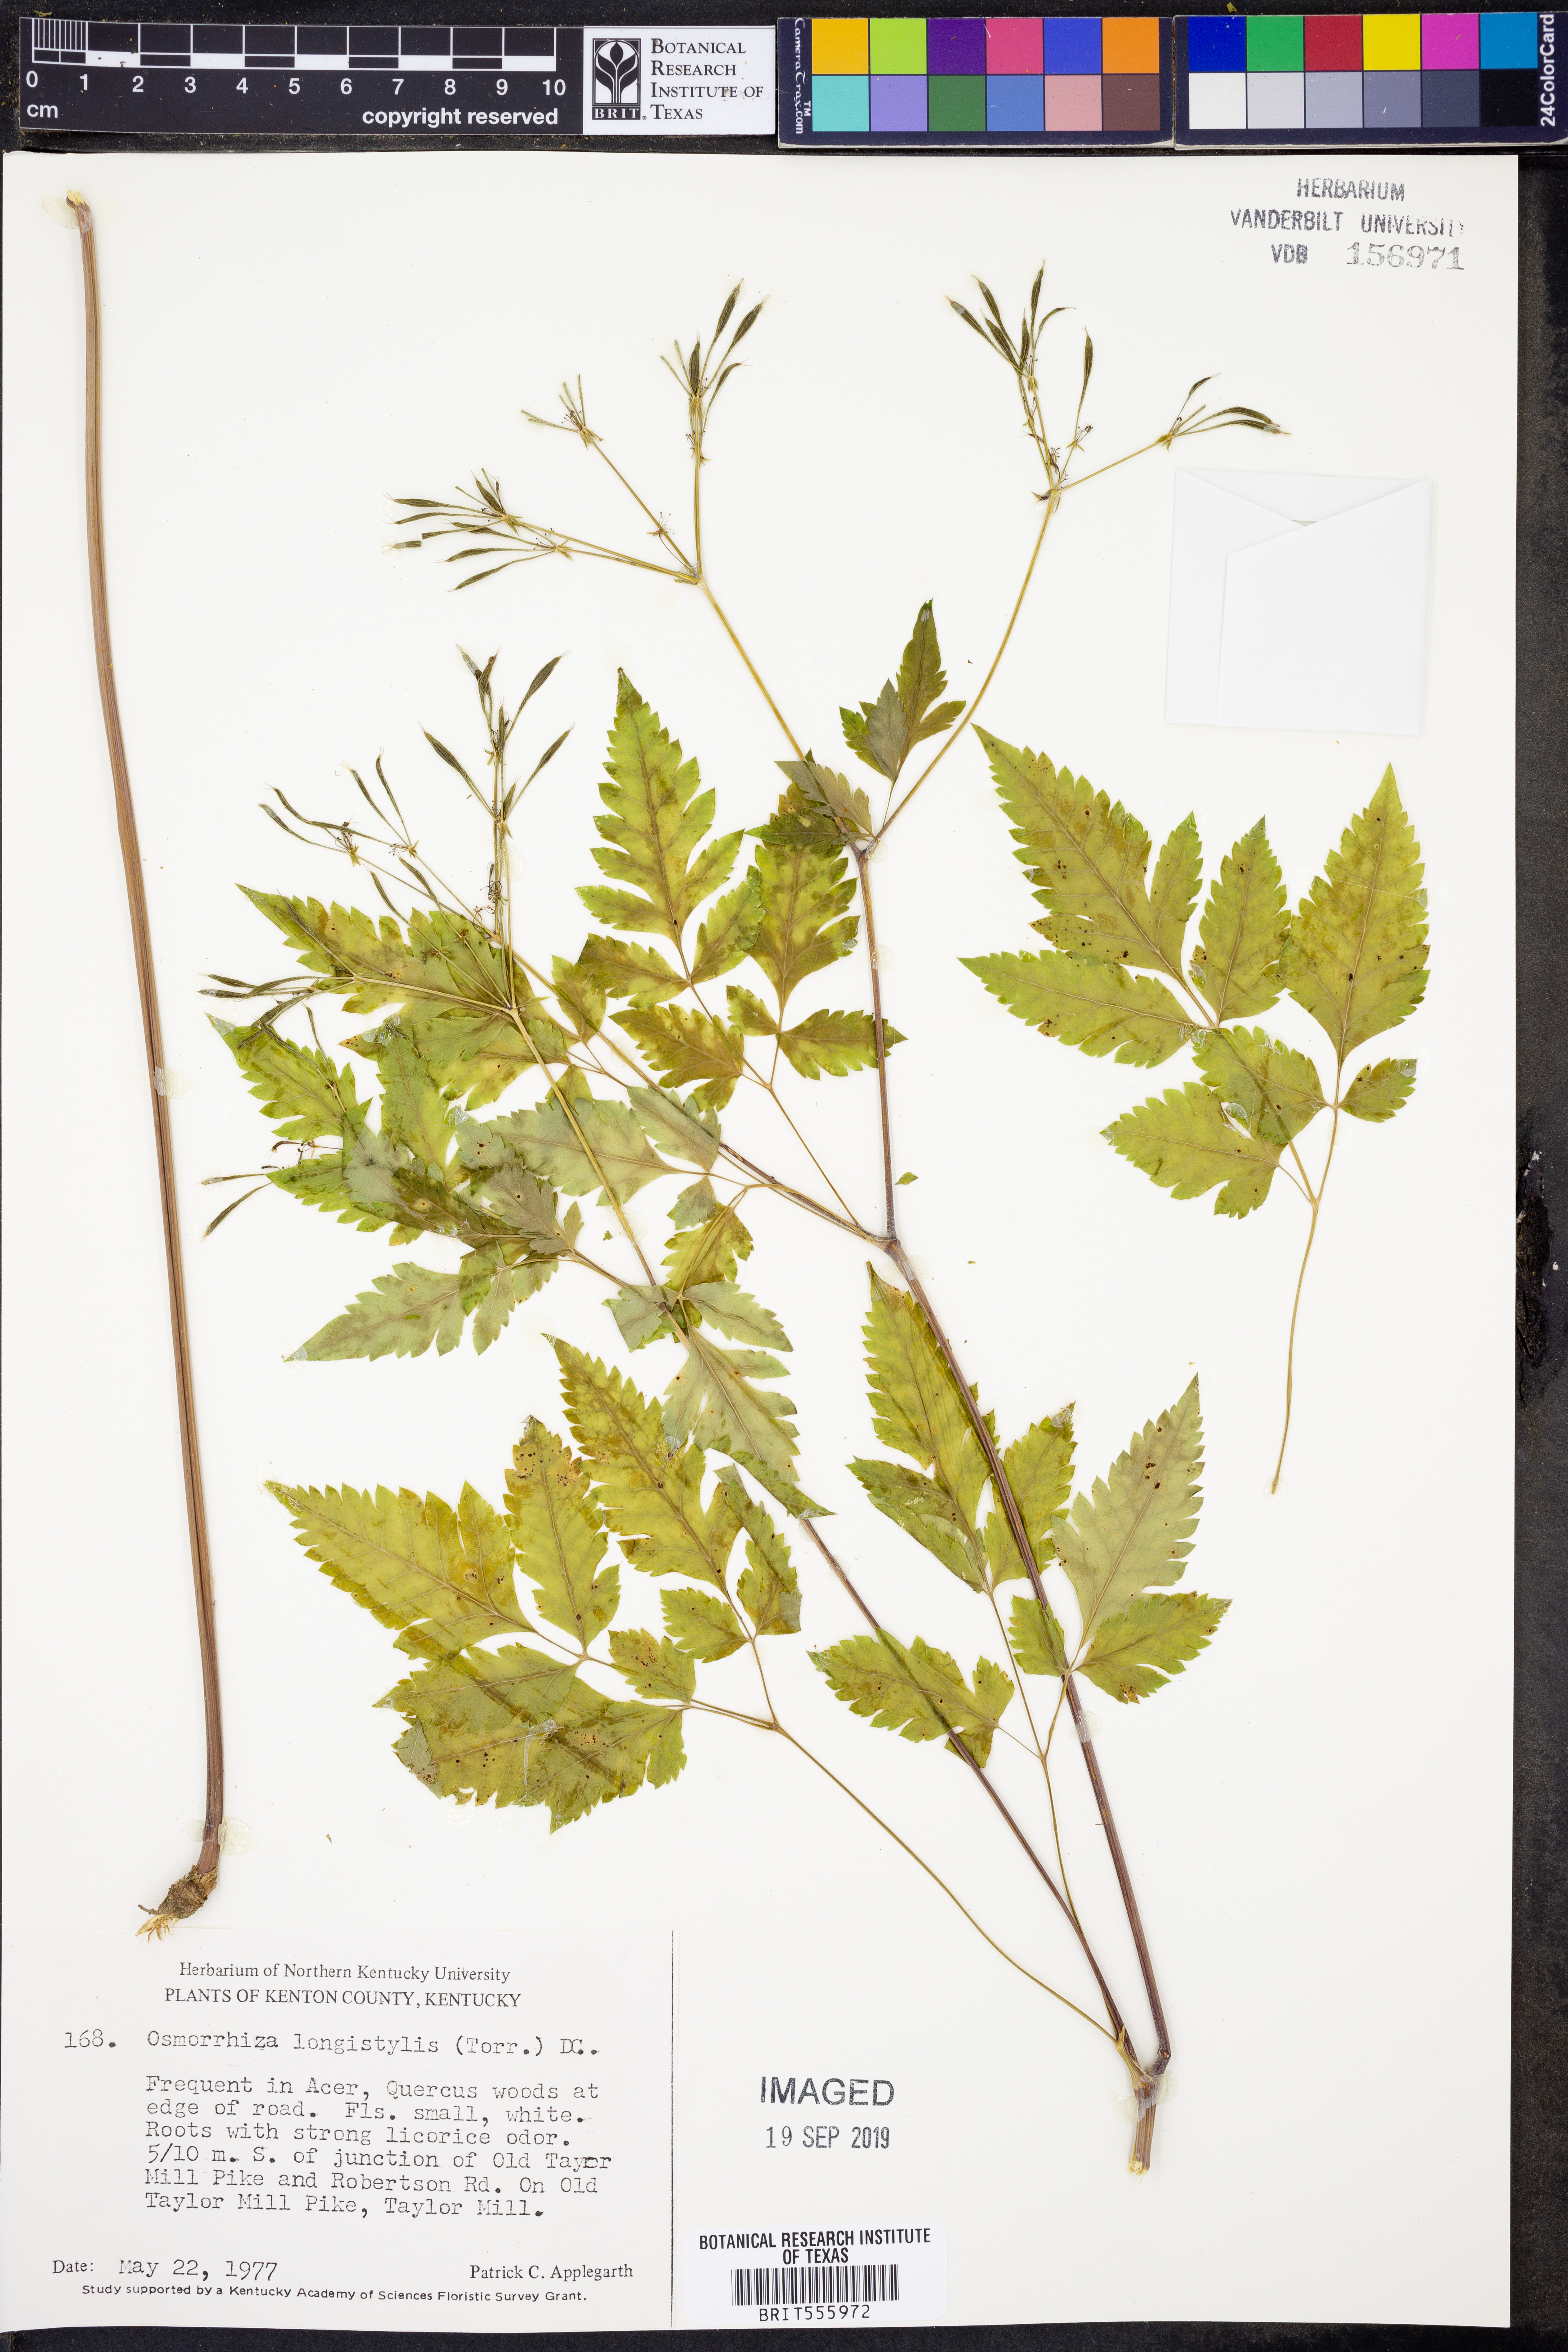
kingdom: Plantae
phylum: Tracheophyta
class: Magnoliopsida
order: Apiales
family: Apiaceae
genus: Osmorhiza
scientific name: Osmorhiza longistylis
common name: Smooth sweet cicely
